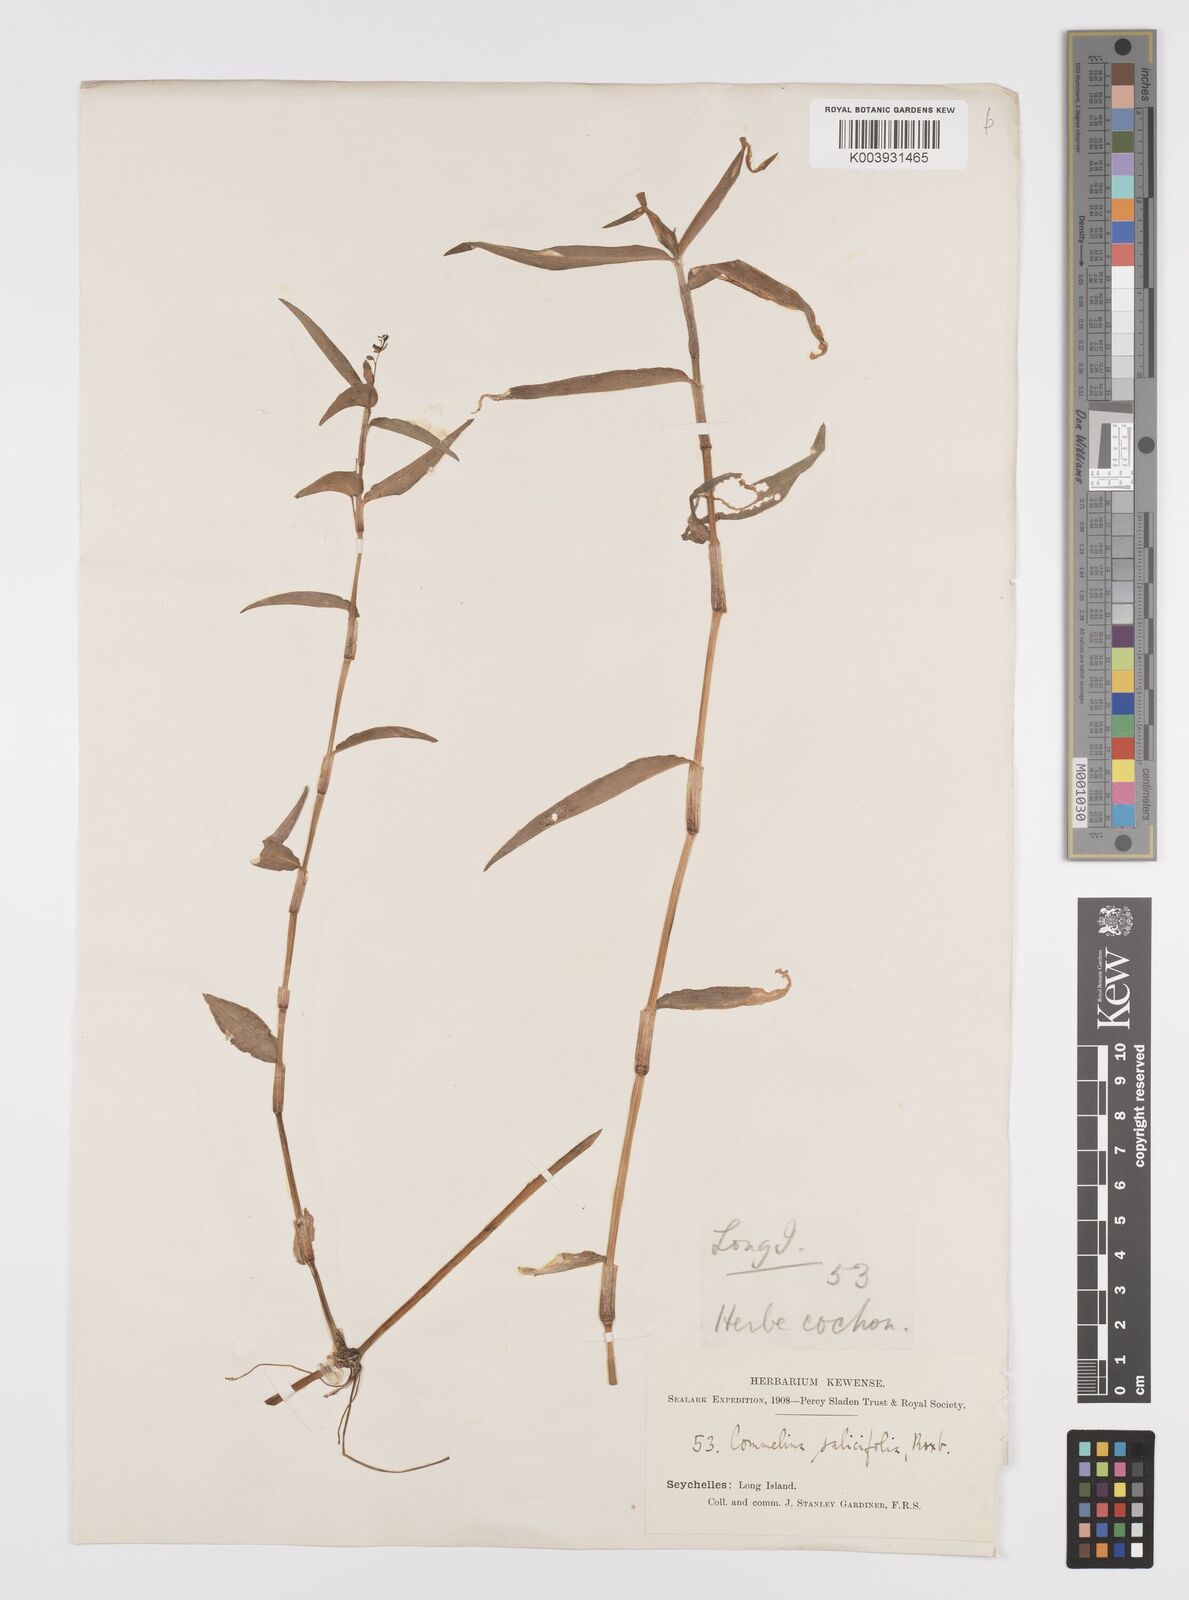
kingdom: Plantae
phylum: Tracheophyta
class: Liliopsida
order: Commelinales
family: Commelinaceae
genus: Commelina
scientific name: Commelina longifolia
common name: Longleaf dayflower
